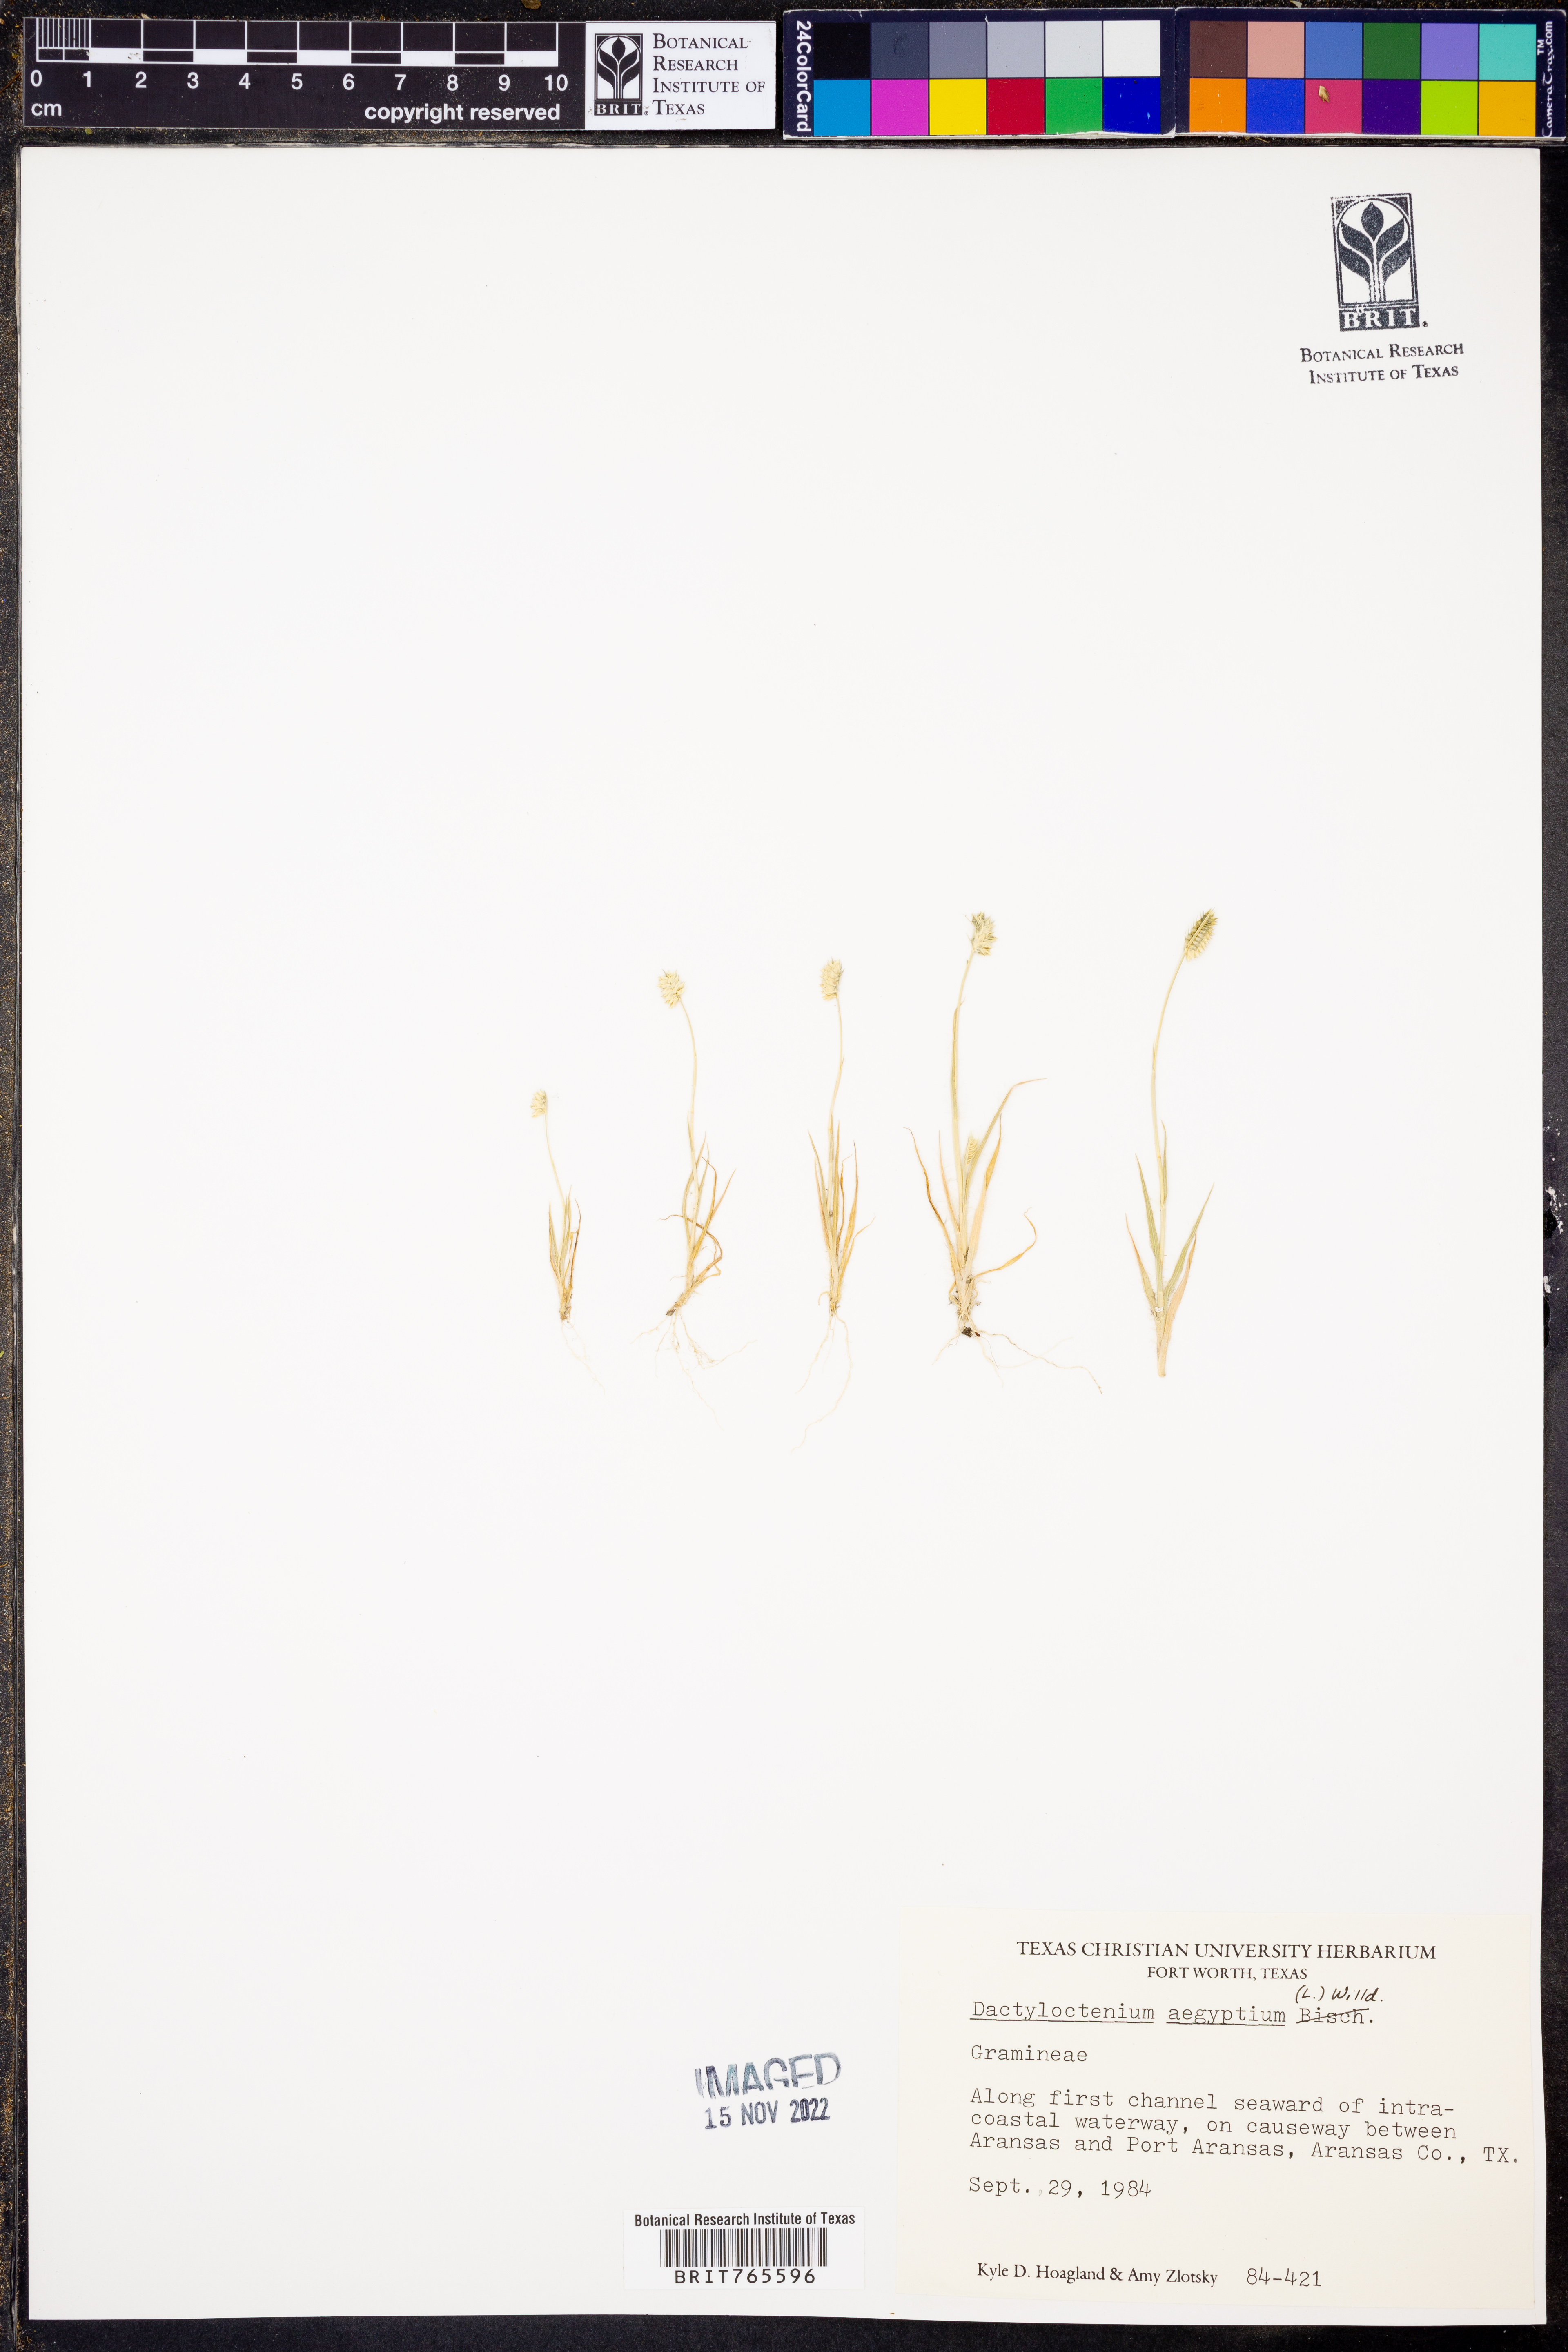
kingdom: Plantae
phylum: Tracheophyta
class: Liliopsida
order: Poales
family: Poaceae
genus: Dactyloctenium
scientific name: Dactyloctenium aegyptium
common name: Egyptian grass
